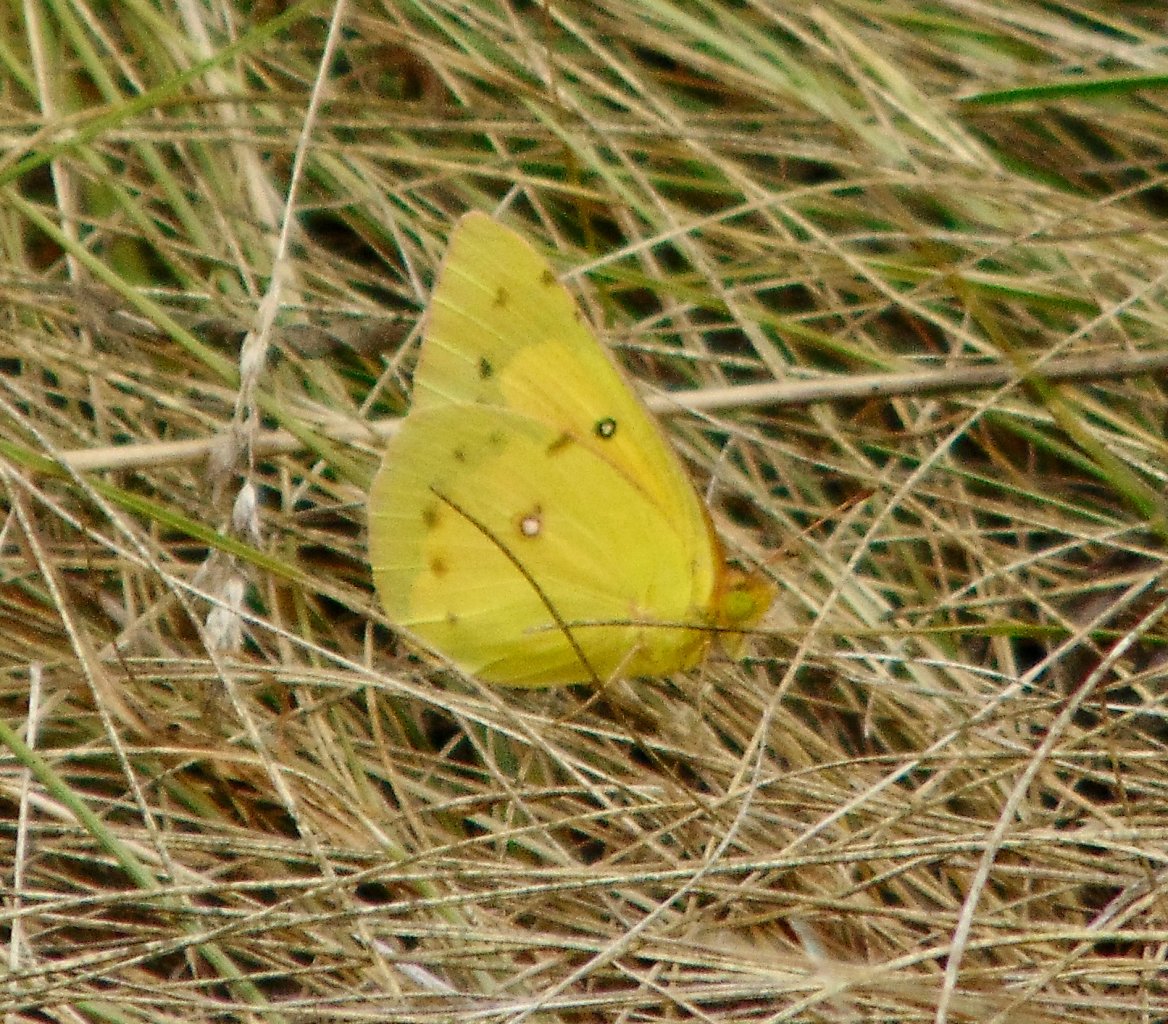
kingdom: Animalia
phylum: Arthropoda
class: Insecta
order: Lepidoptera
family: Pieridae
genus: Colias
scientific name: Colias eurytheme
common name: Orange Sulphur
